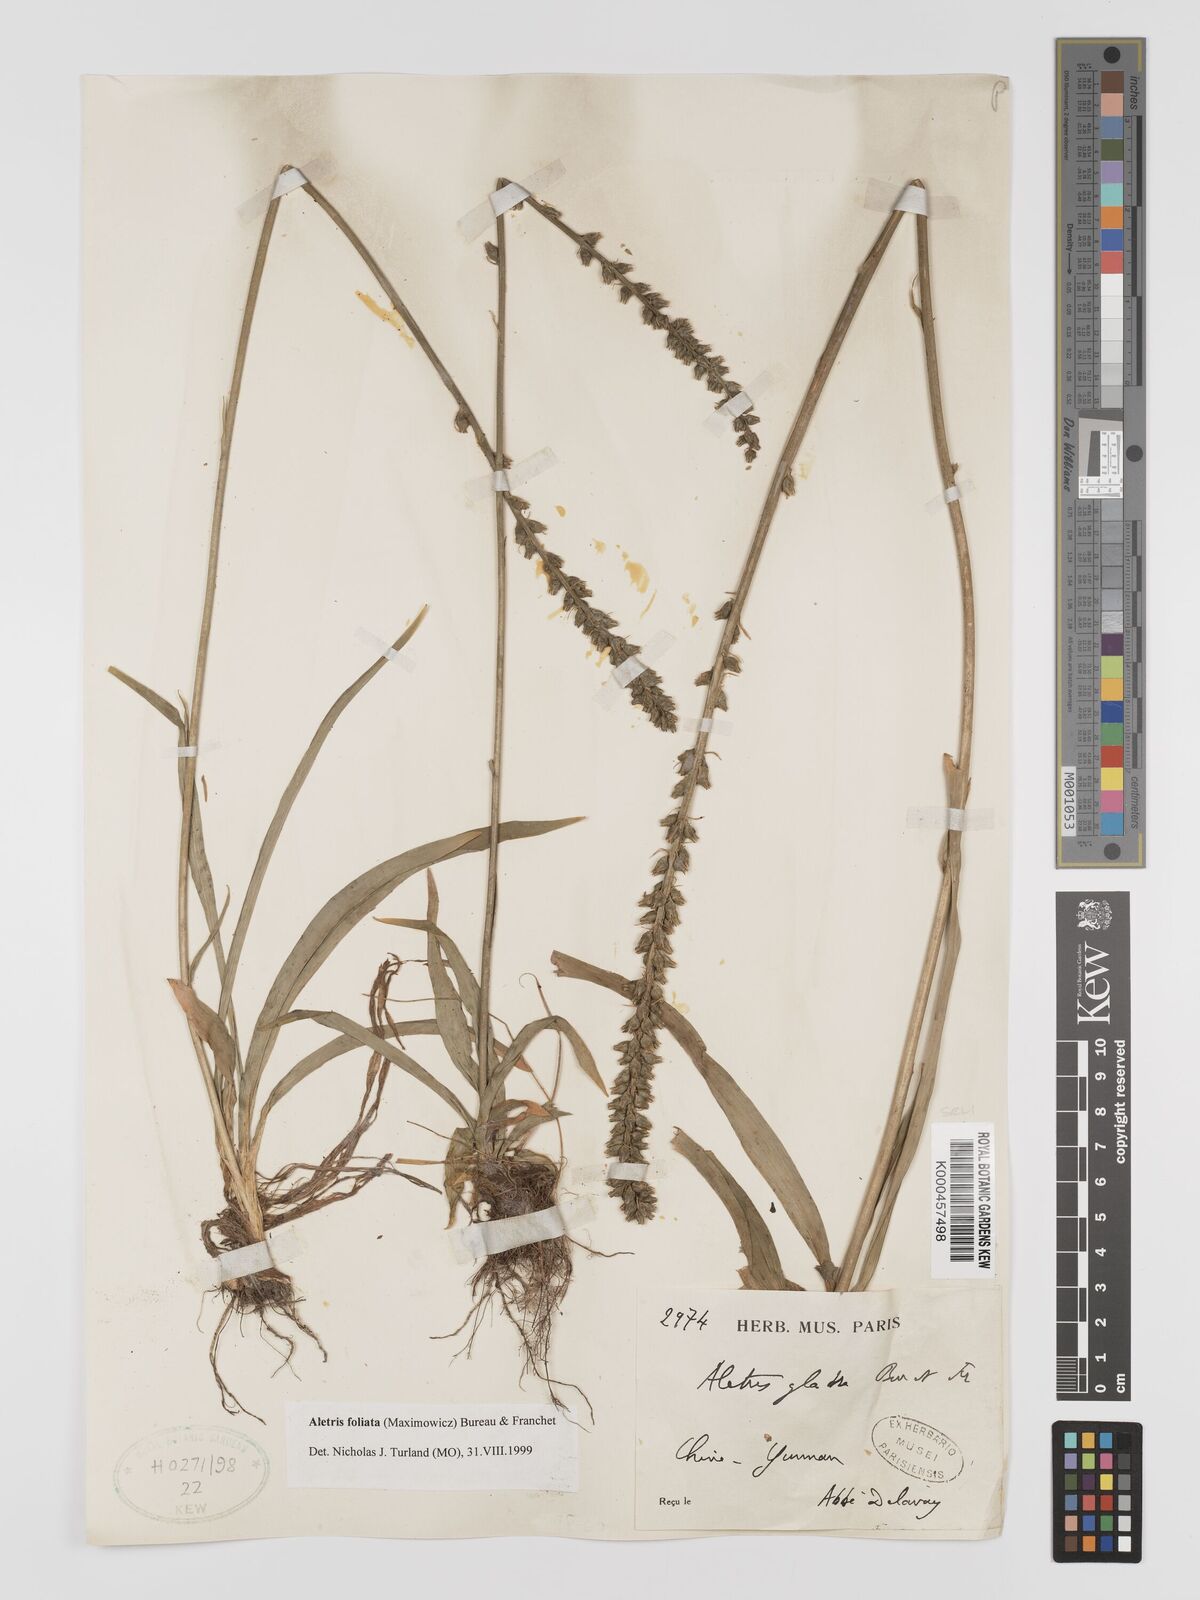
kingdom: Plantae
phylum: Tracheophyta
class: Liliopsida
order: Dioscoreales
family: Nartheciaceae
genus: Aletris
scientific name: Aletris glabra
